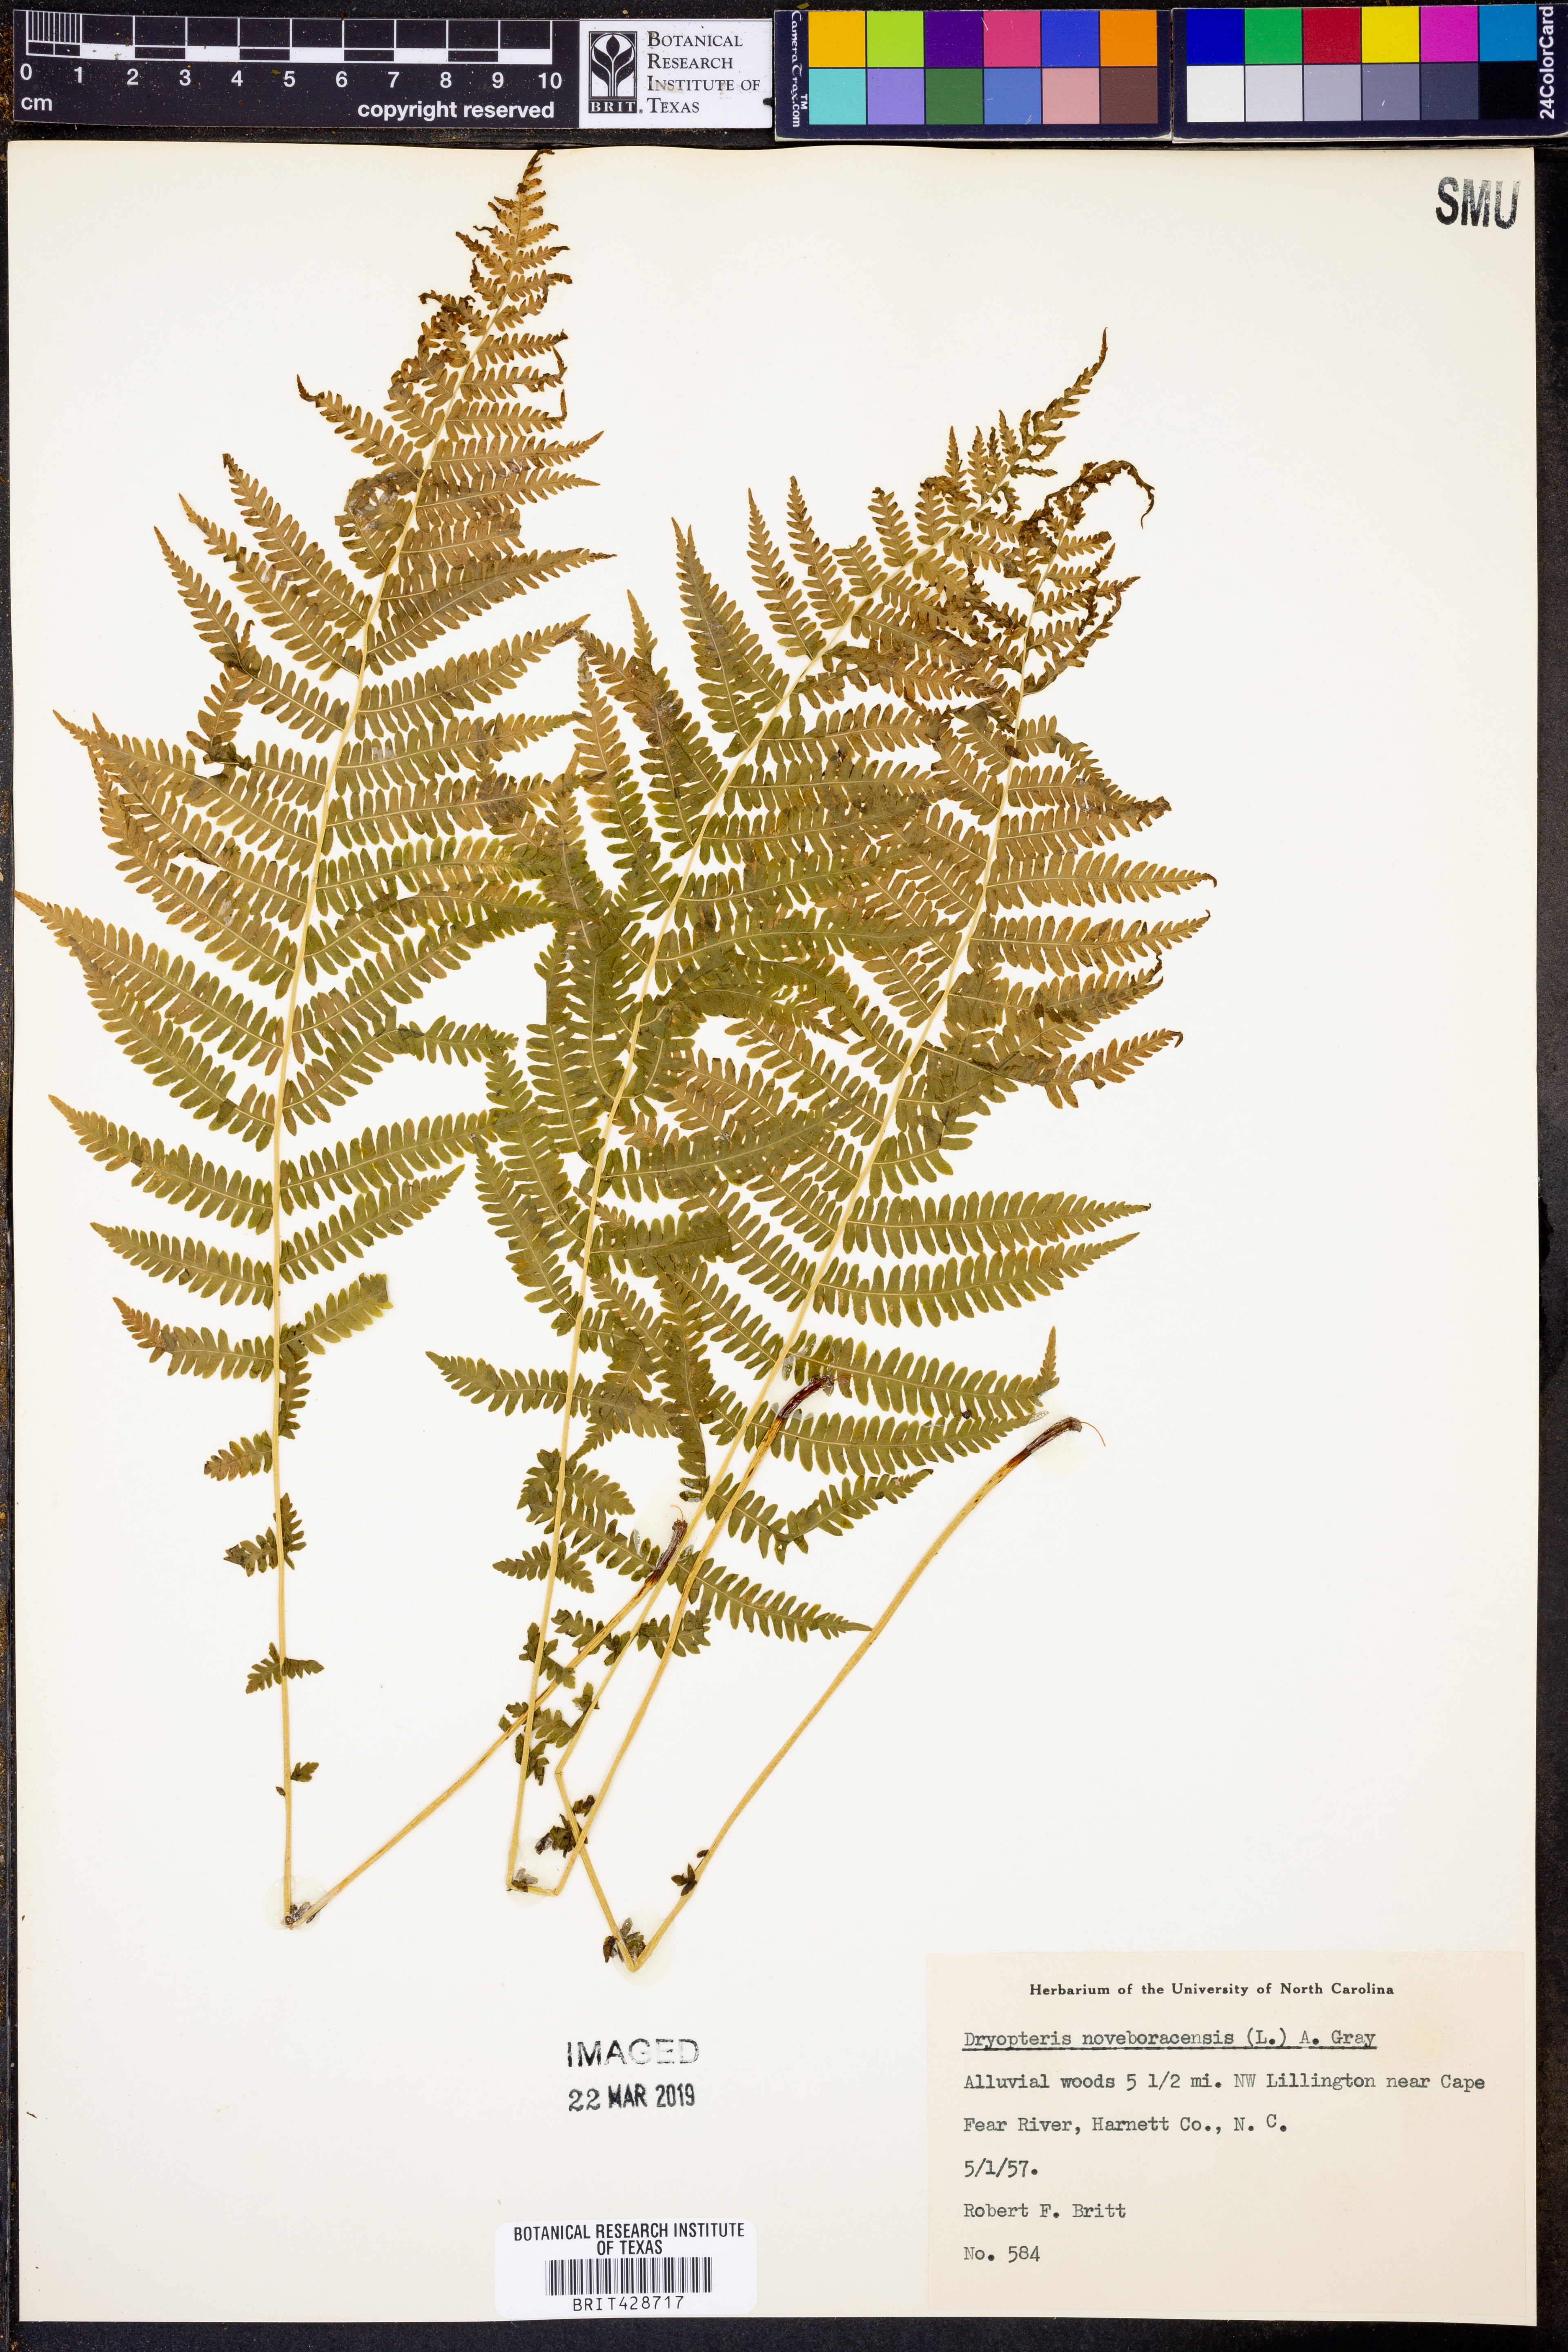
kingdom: Plantae
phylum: Tracheophyta
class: Polypodiopsida
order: Polypodiales
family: Thelypteridaceae
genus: Amauropelta
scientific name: Amauropelta noveboracensis
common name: New york fern
